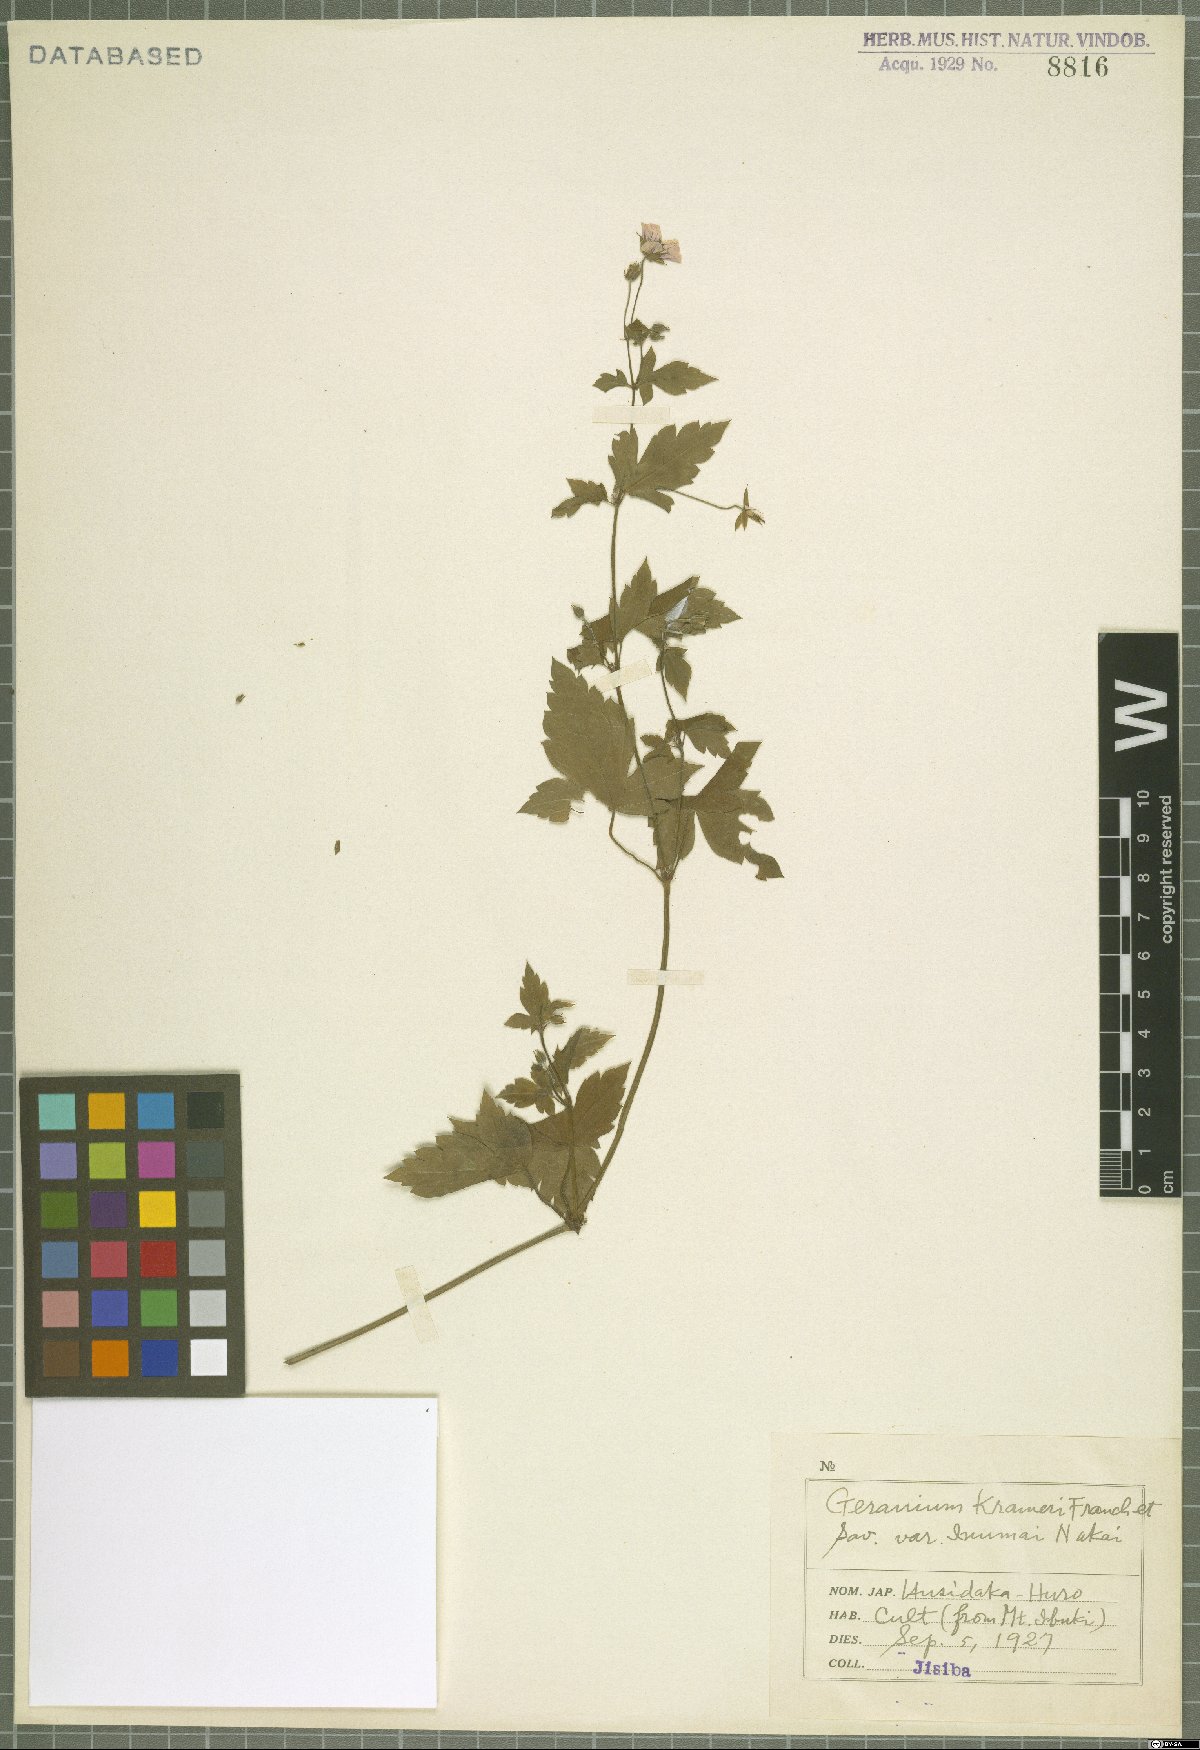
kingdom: Plantae
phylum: Tracheophyta
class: Magnoliopsida
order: Geraniales
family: Geraniaceae
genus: Geranium
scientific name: Geranium wilfordii
